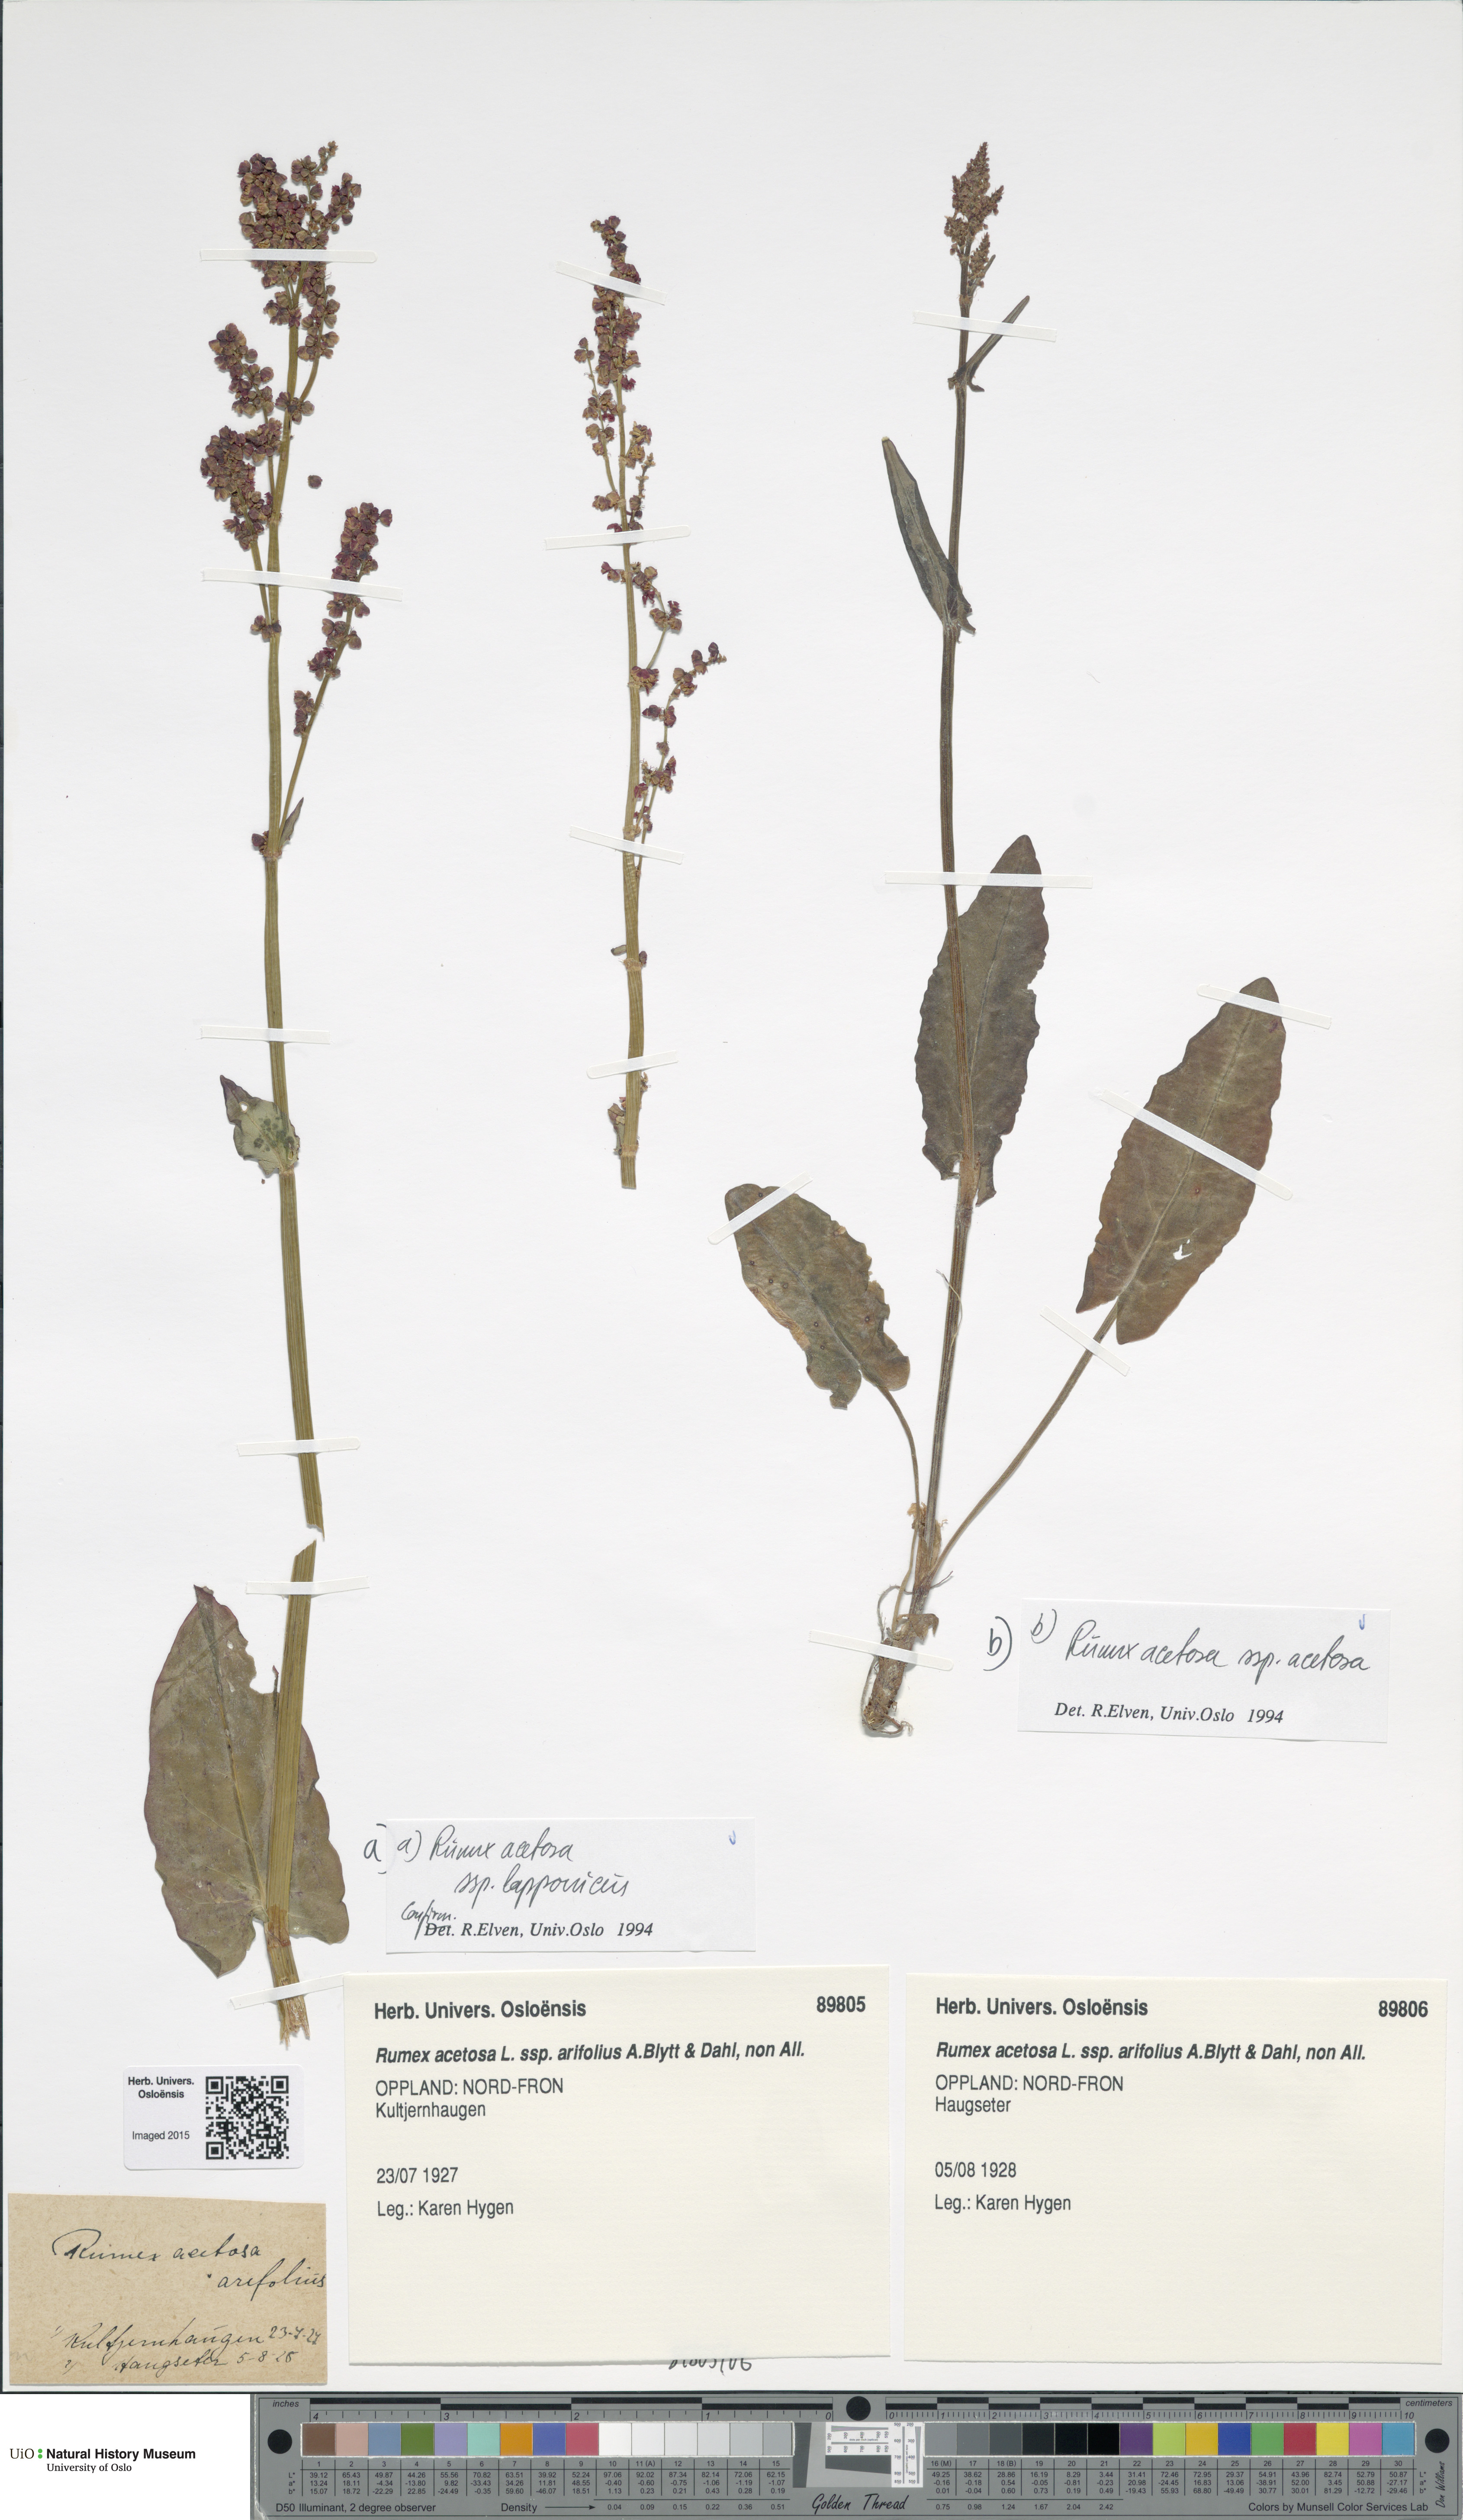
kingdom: Plantae
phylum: Tracheophyta
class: Magnoliopsida
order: Caryophyllales
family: Polygonaceae
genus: Rumex
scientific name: Rumex arifolius
